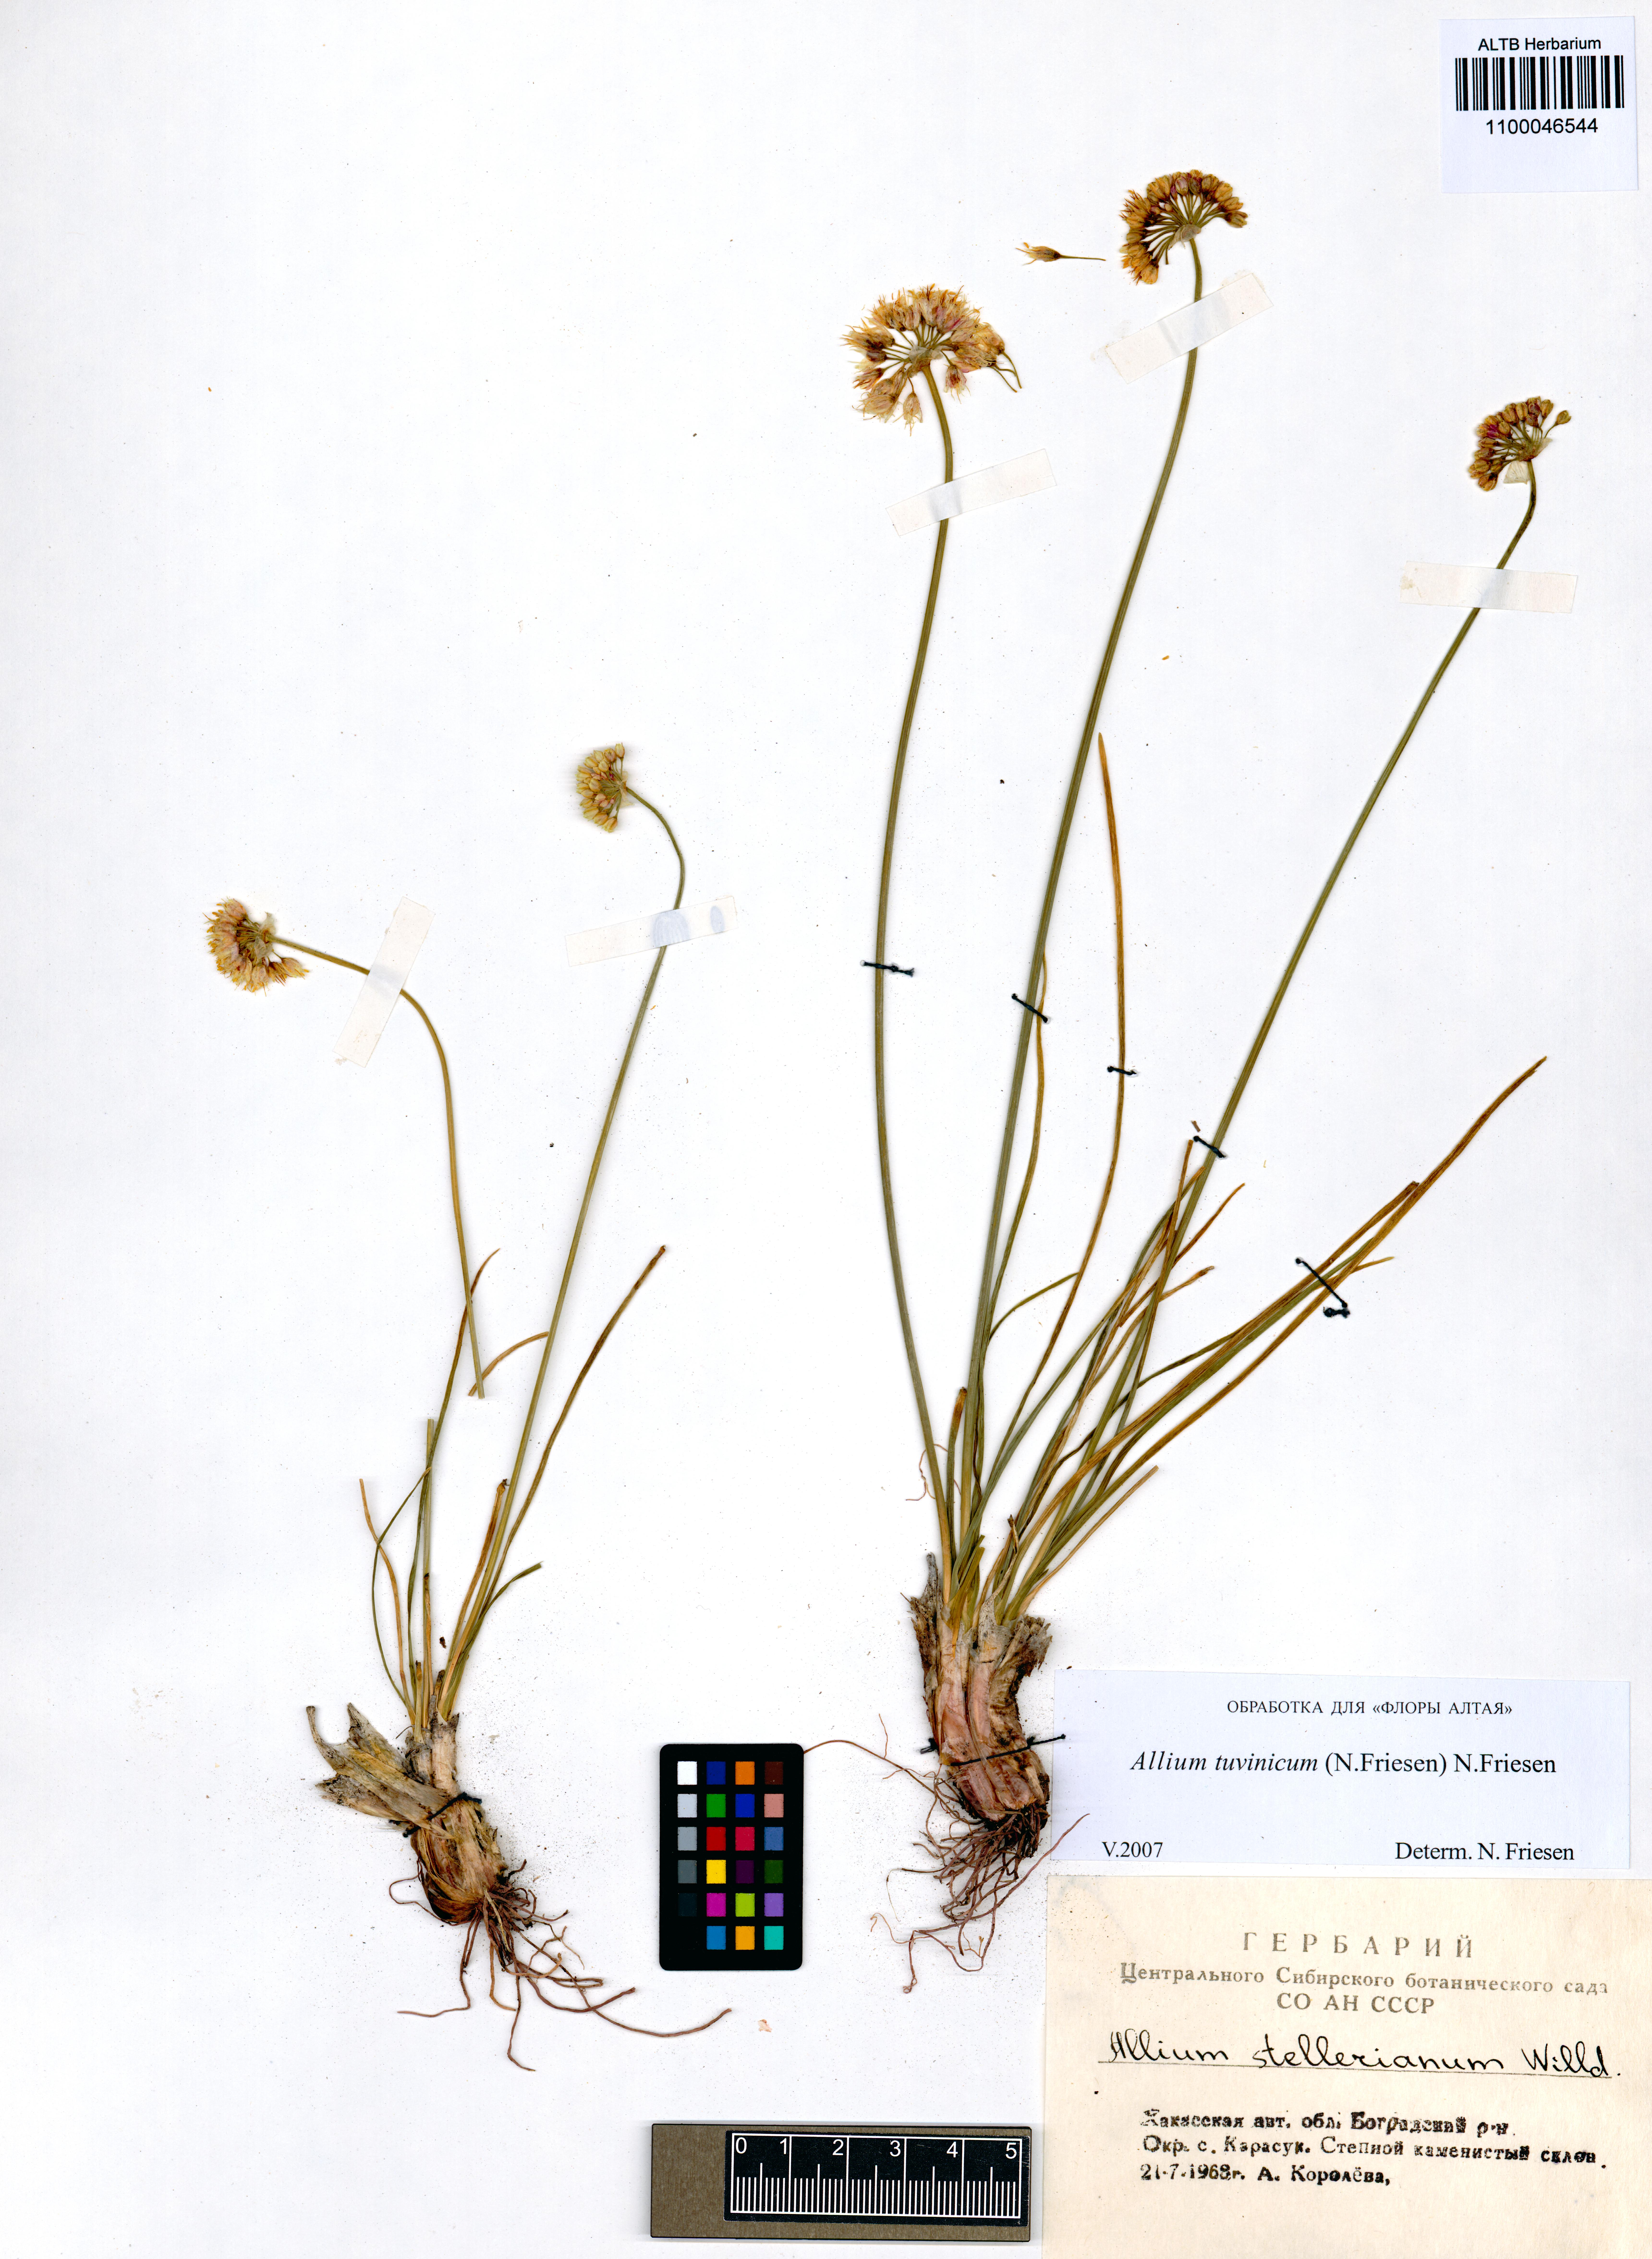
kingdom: Plantae
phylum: Tracheophyta
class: Liliopsida
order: Asparagales
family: Amaryllidaceae
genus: Allium
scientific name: Allium tuvinicum
